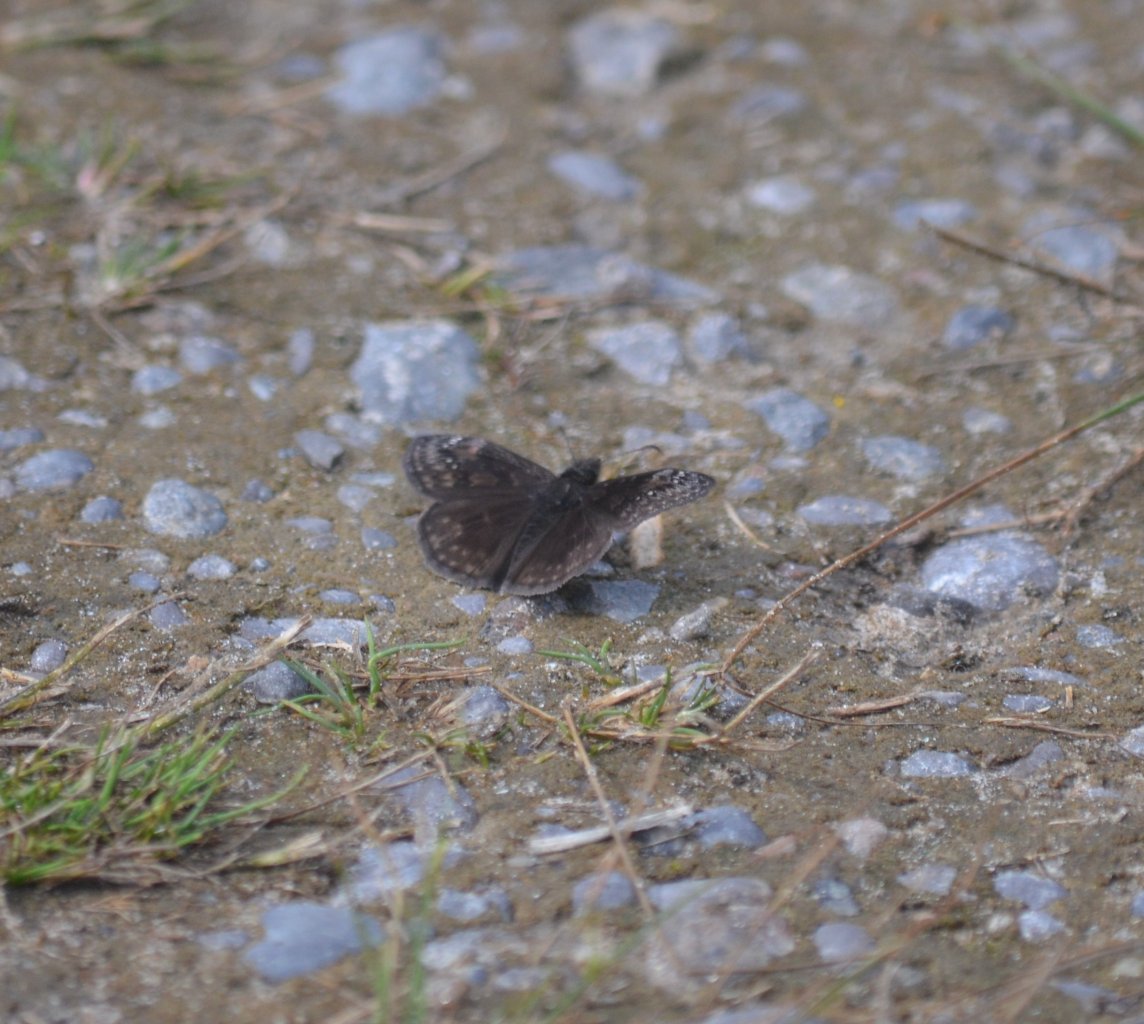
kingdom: Animalia
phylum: Arthropoda
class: Insecta
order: Lepidoptera
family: Hesperiidae
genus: Gesta
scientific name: Gesta
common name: Wild Indigo Duskywing
